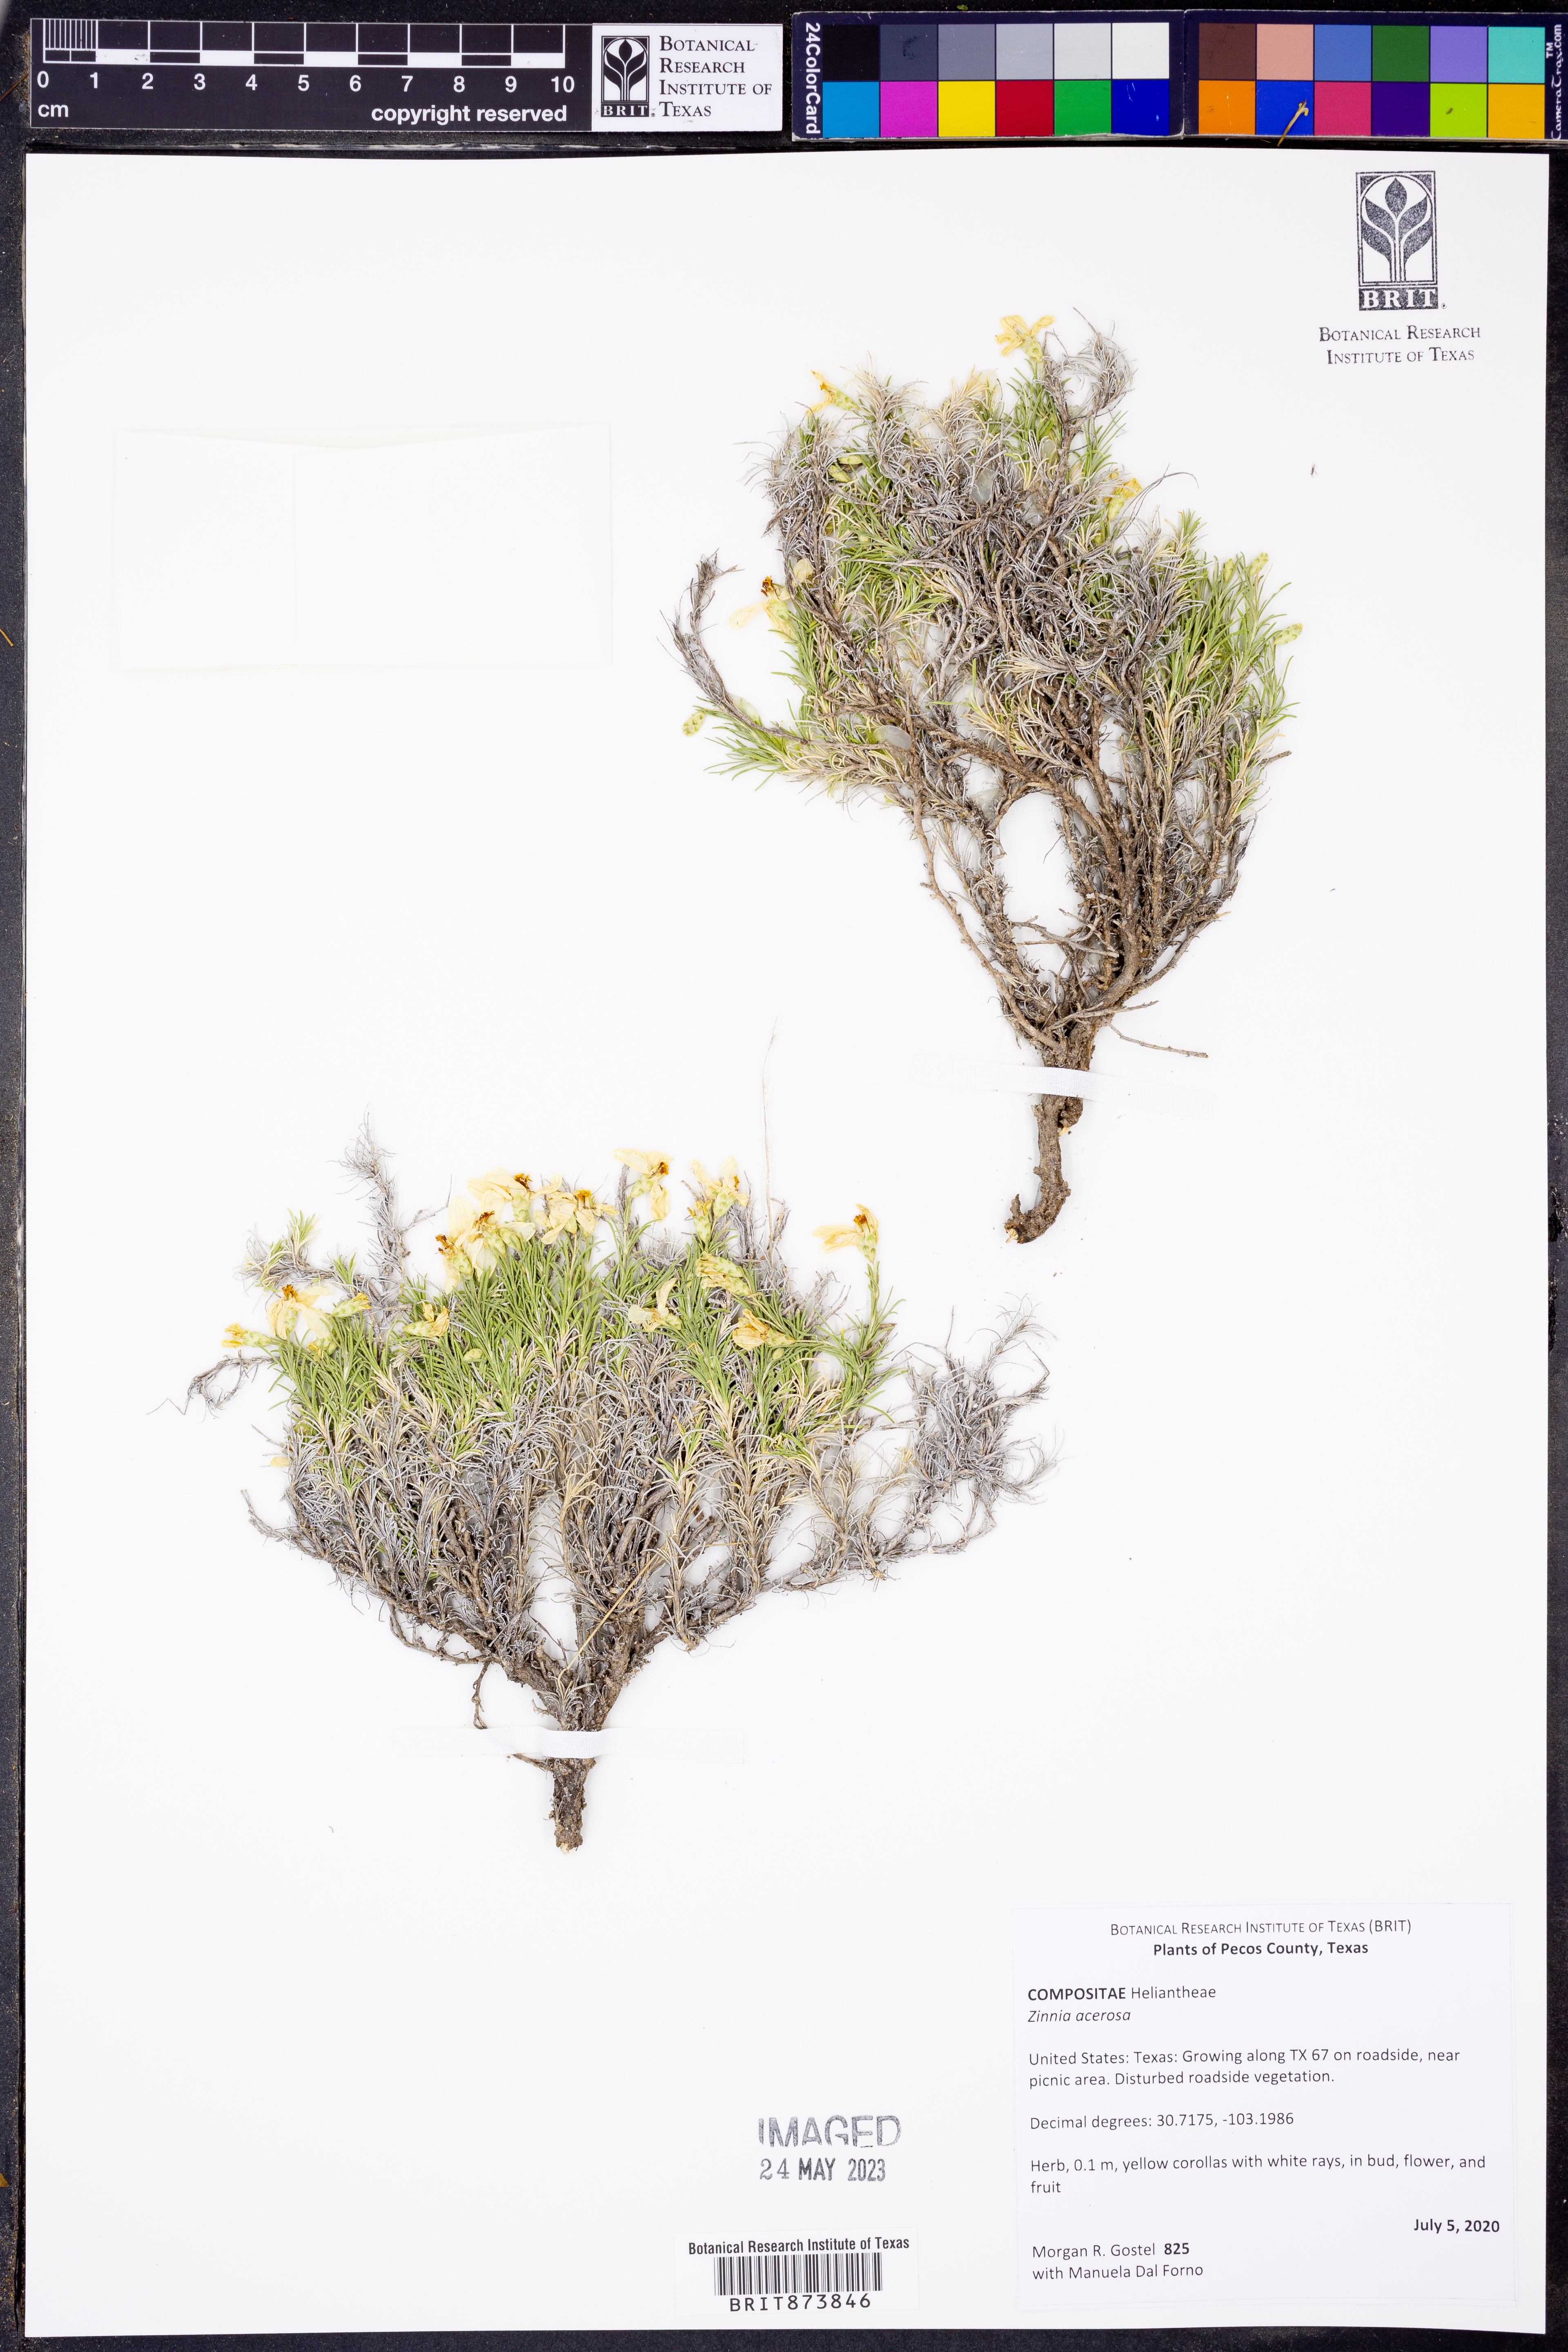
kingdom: Plantae
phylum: Tracheophyta
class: Magnoliopsida
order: Asterales
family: Asteraceae
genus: Zinnia
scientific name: Zinnia acerosa
